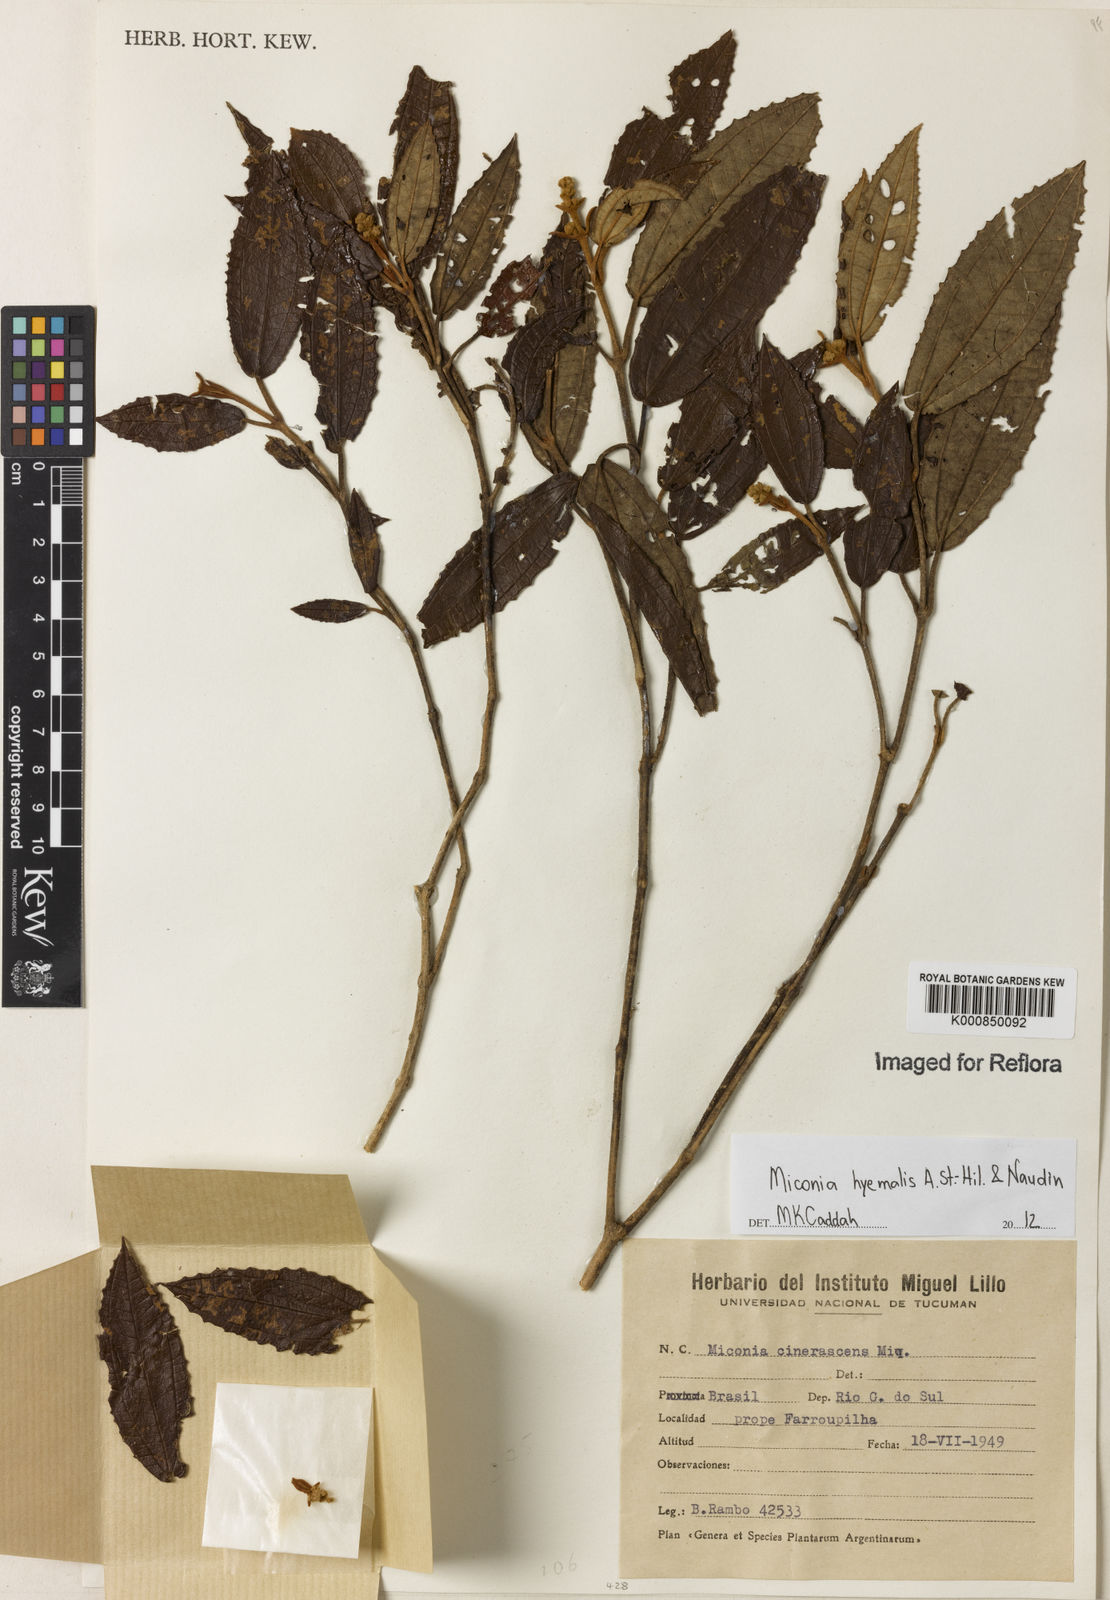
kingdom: Plantae
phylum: Tracheophyta
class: Magnoliopsida
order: Myrtales
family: Melastomataceae
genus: Miconia
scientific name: Miconia hyemalis
